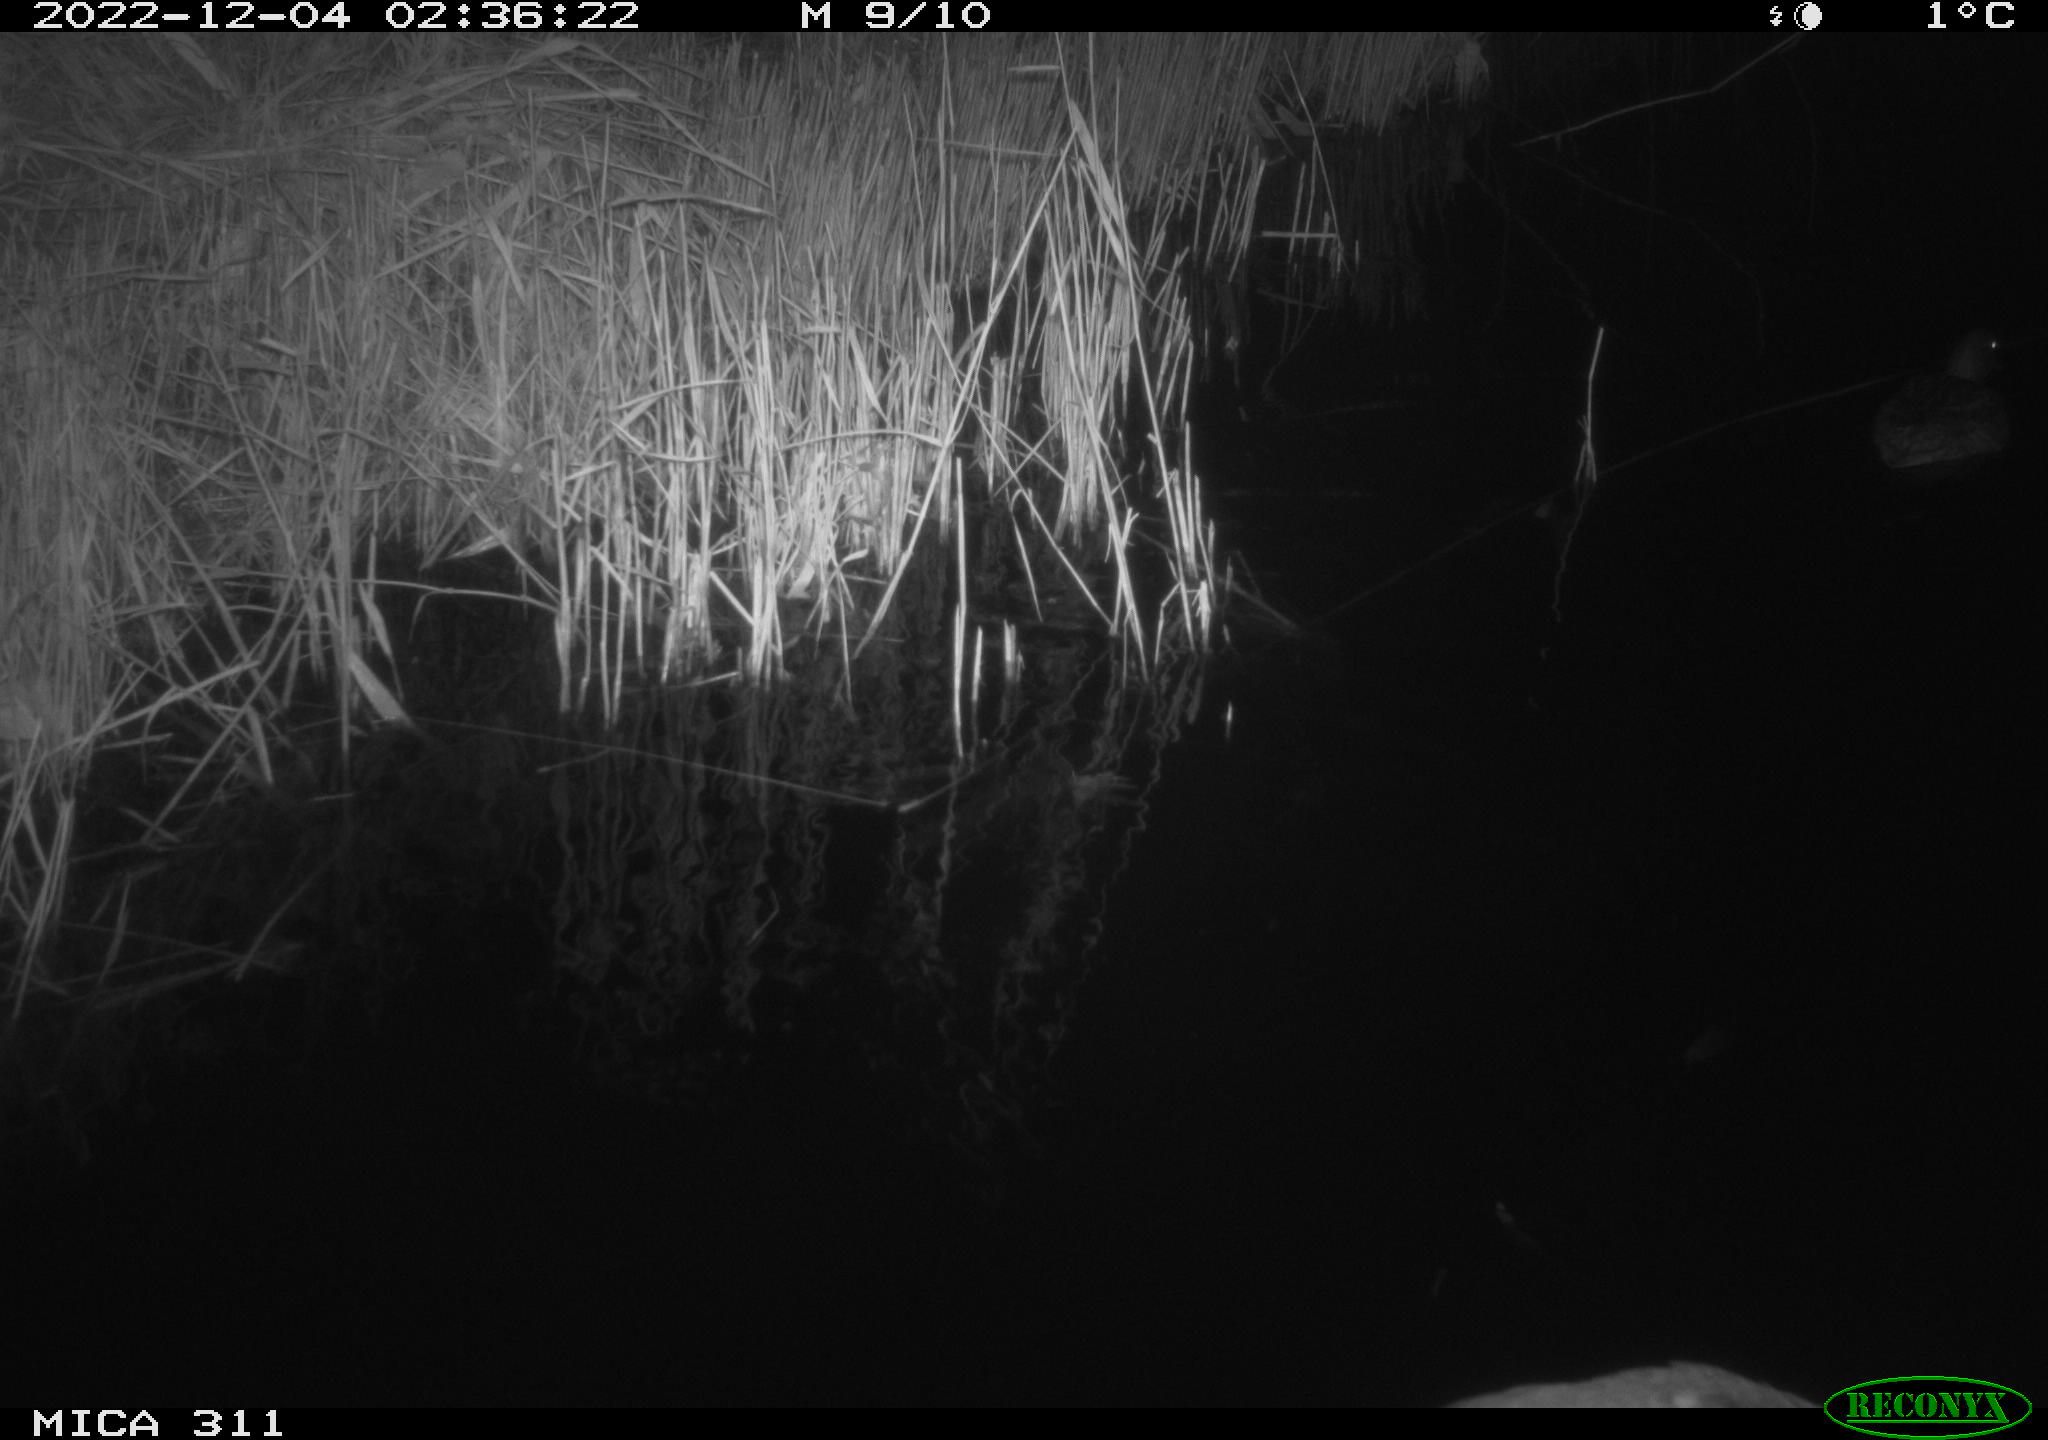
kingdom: Animalia
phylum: Chordata
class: Aves
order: Anseriformes
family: Anatidae
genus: Anas
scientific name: Anas
